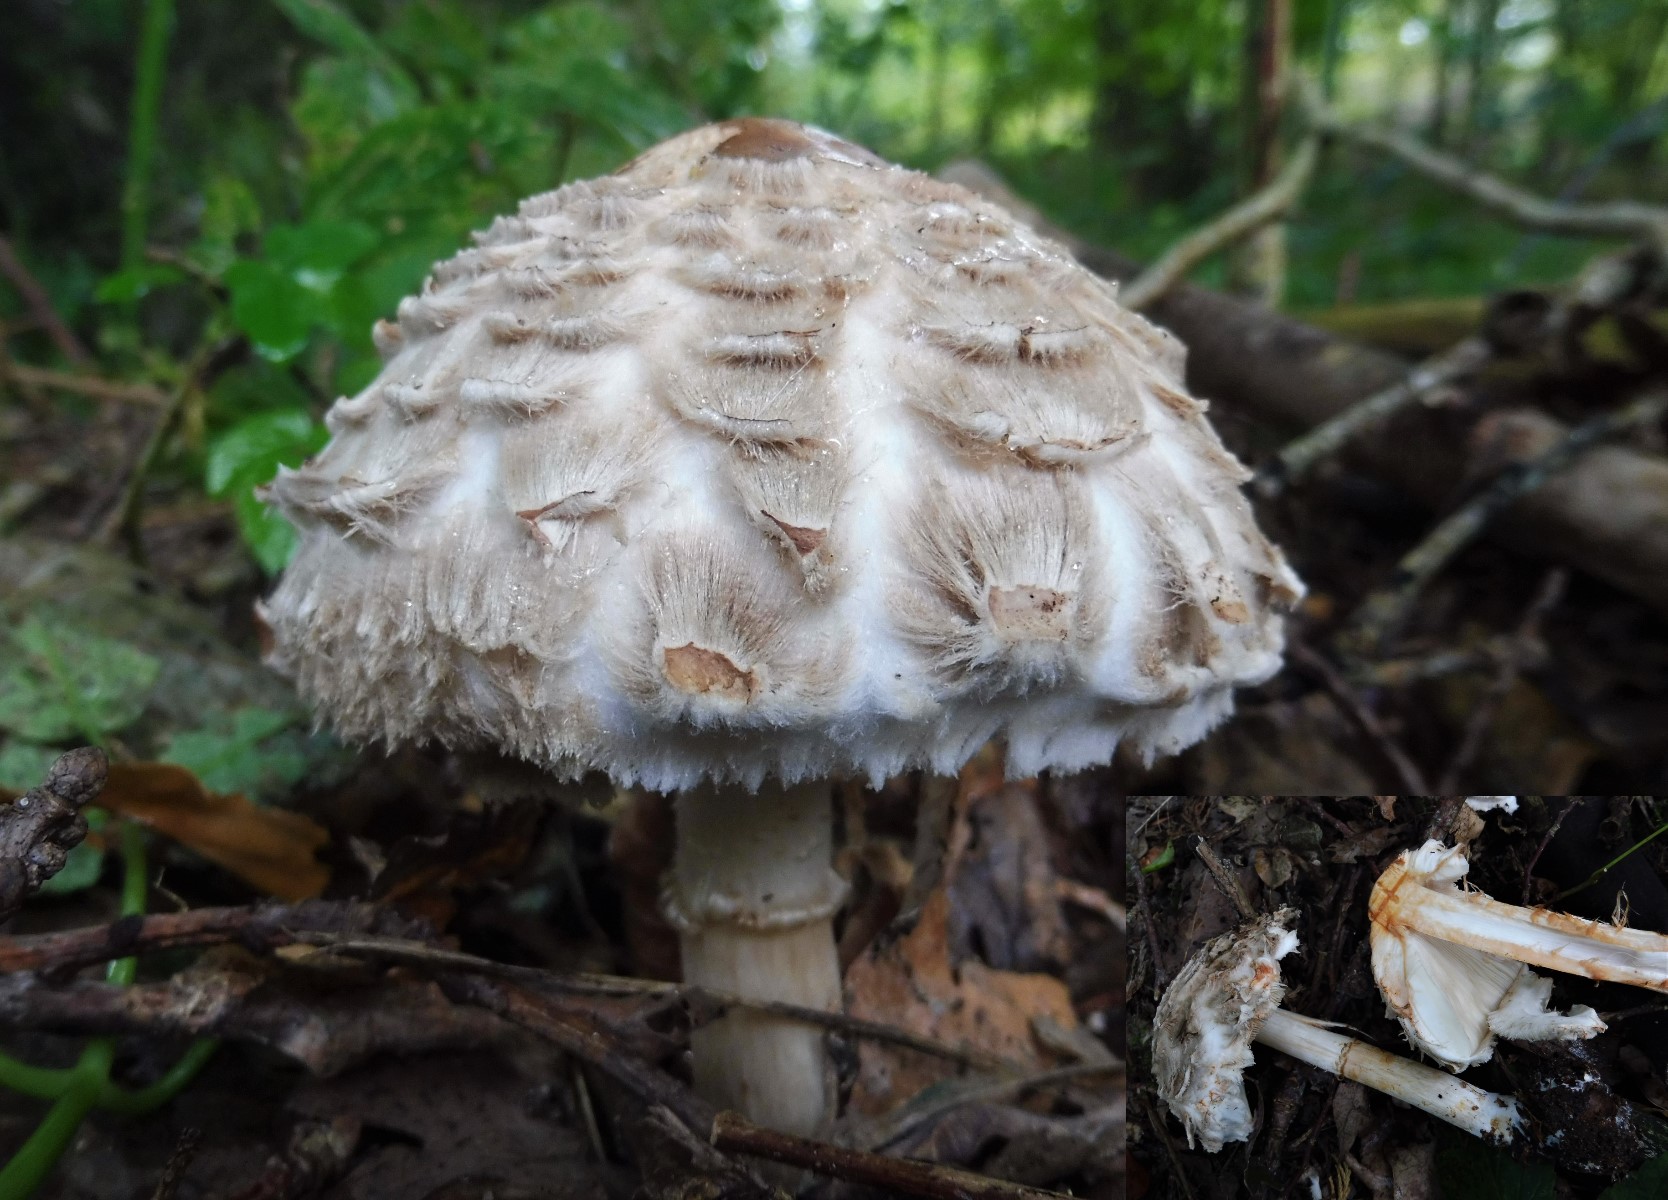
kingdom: Fungi
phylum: Basidiomycota
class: Agaricomycetes
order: Agaricales
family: Agaricaceae
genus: Chlorophyllum
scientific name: Chlorophyllum olivieri
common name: almindelig rabarberhat
